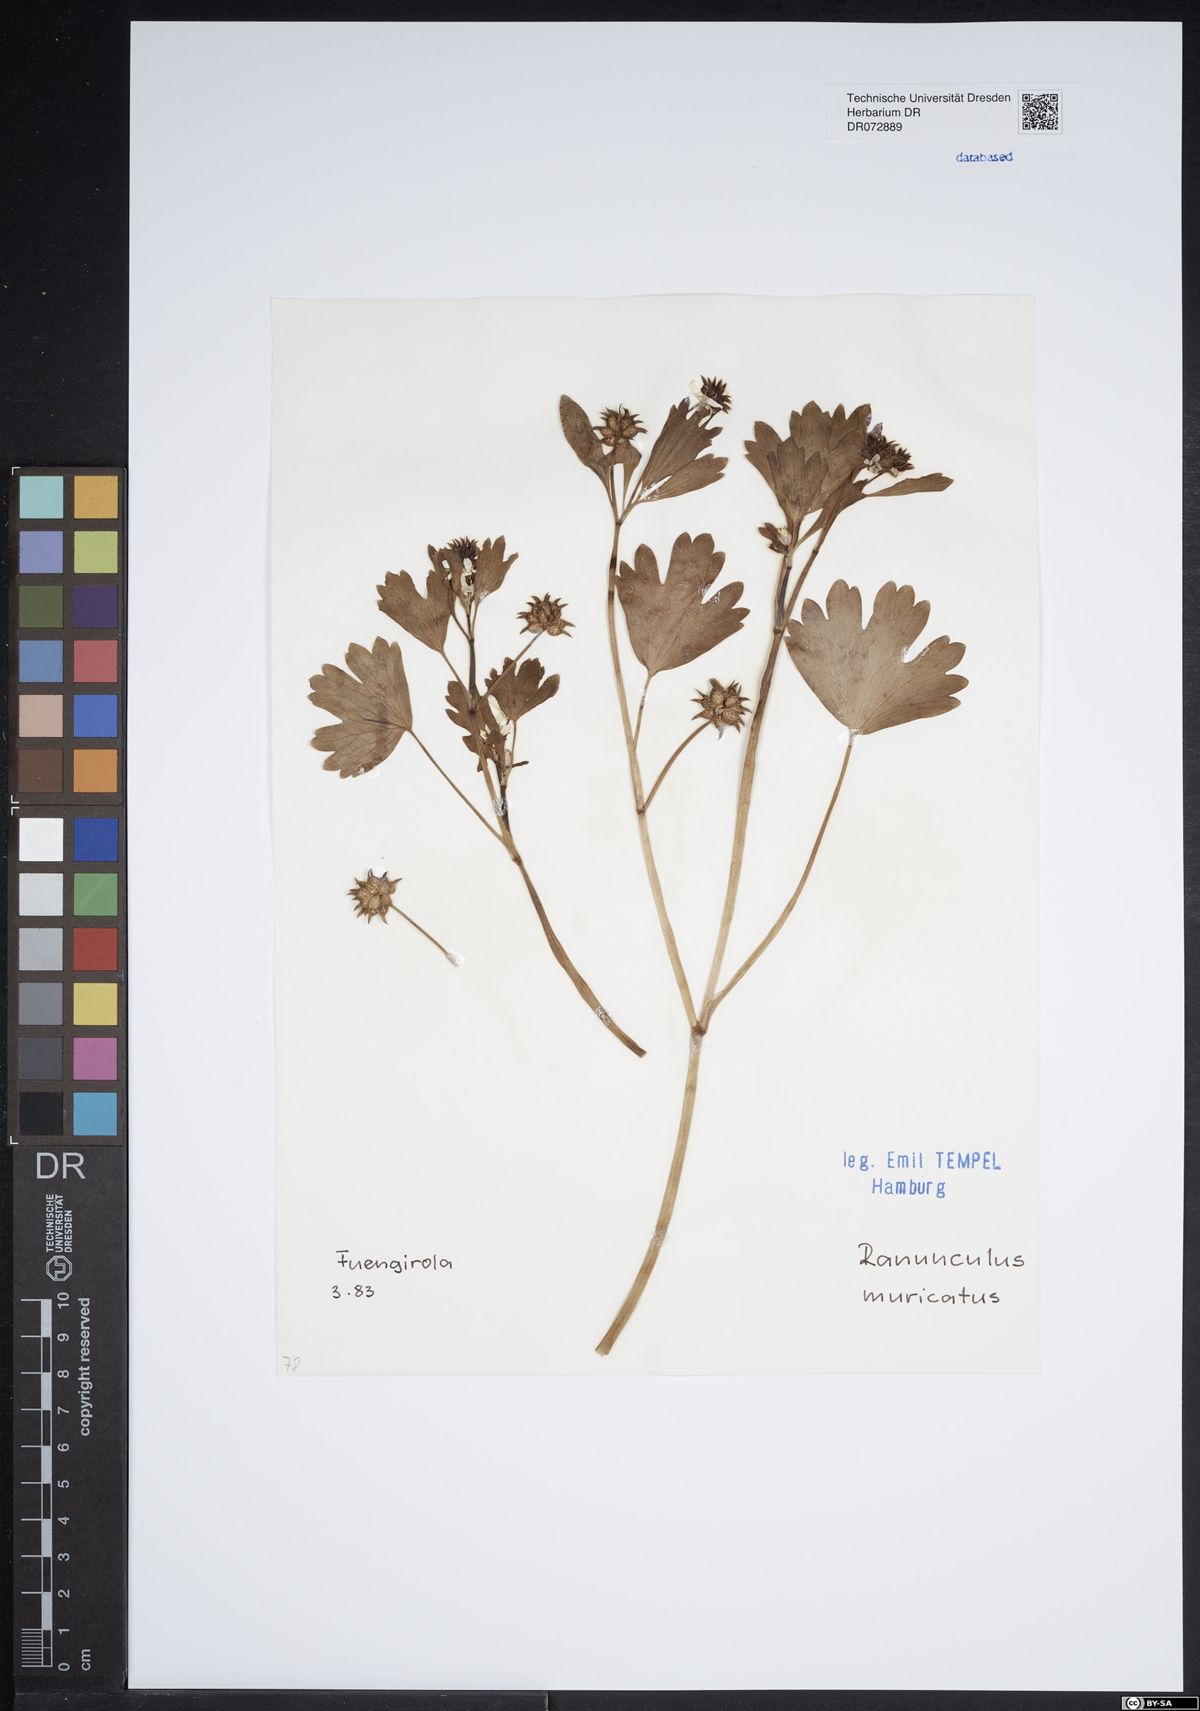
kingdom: Plantae
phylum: Tracheophyta
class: Magnoliopsida
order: Ranunculales
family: Ranunculaceae
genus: Ranunculus
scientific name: Ranunculus muricatus
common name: Rough-fruited buttercup
